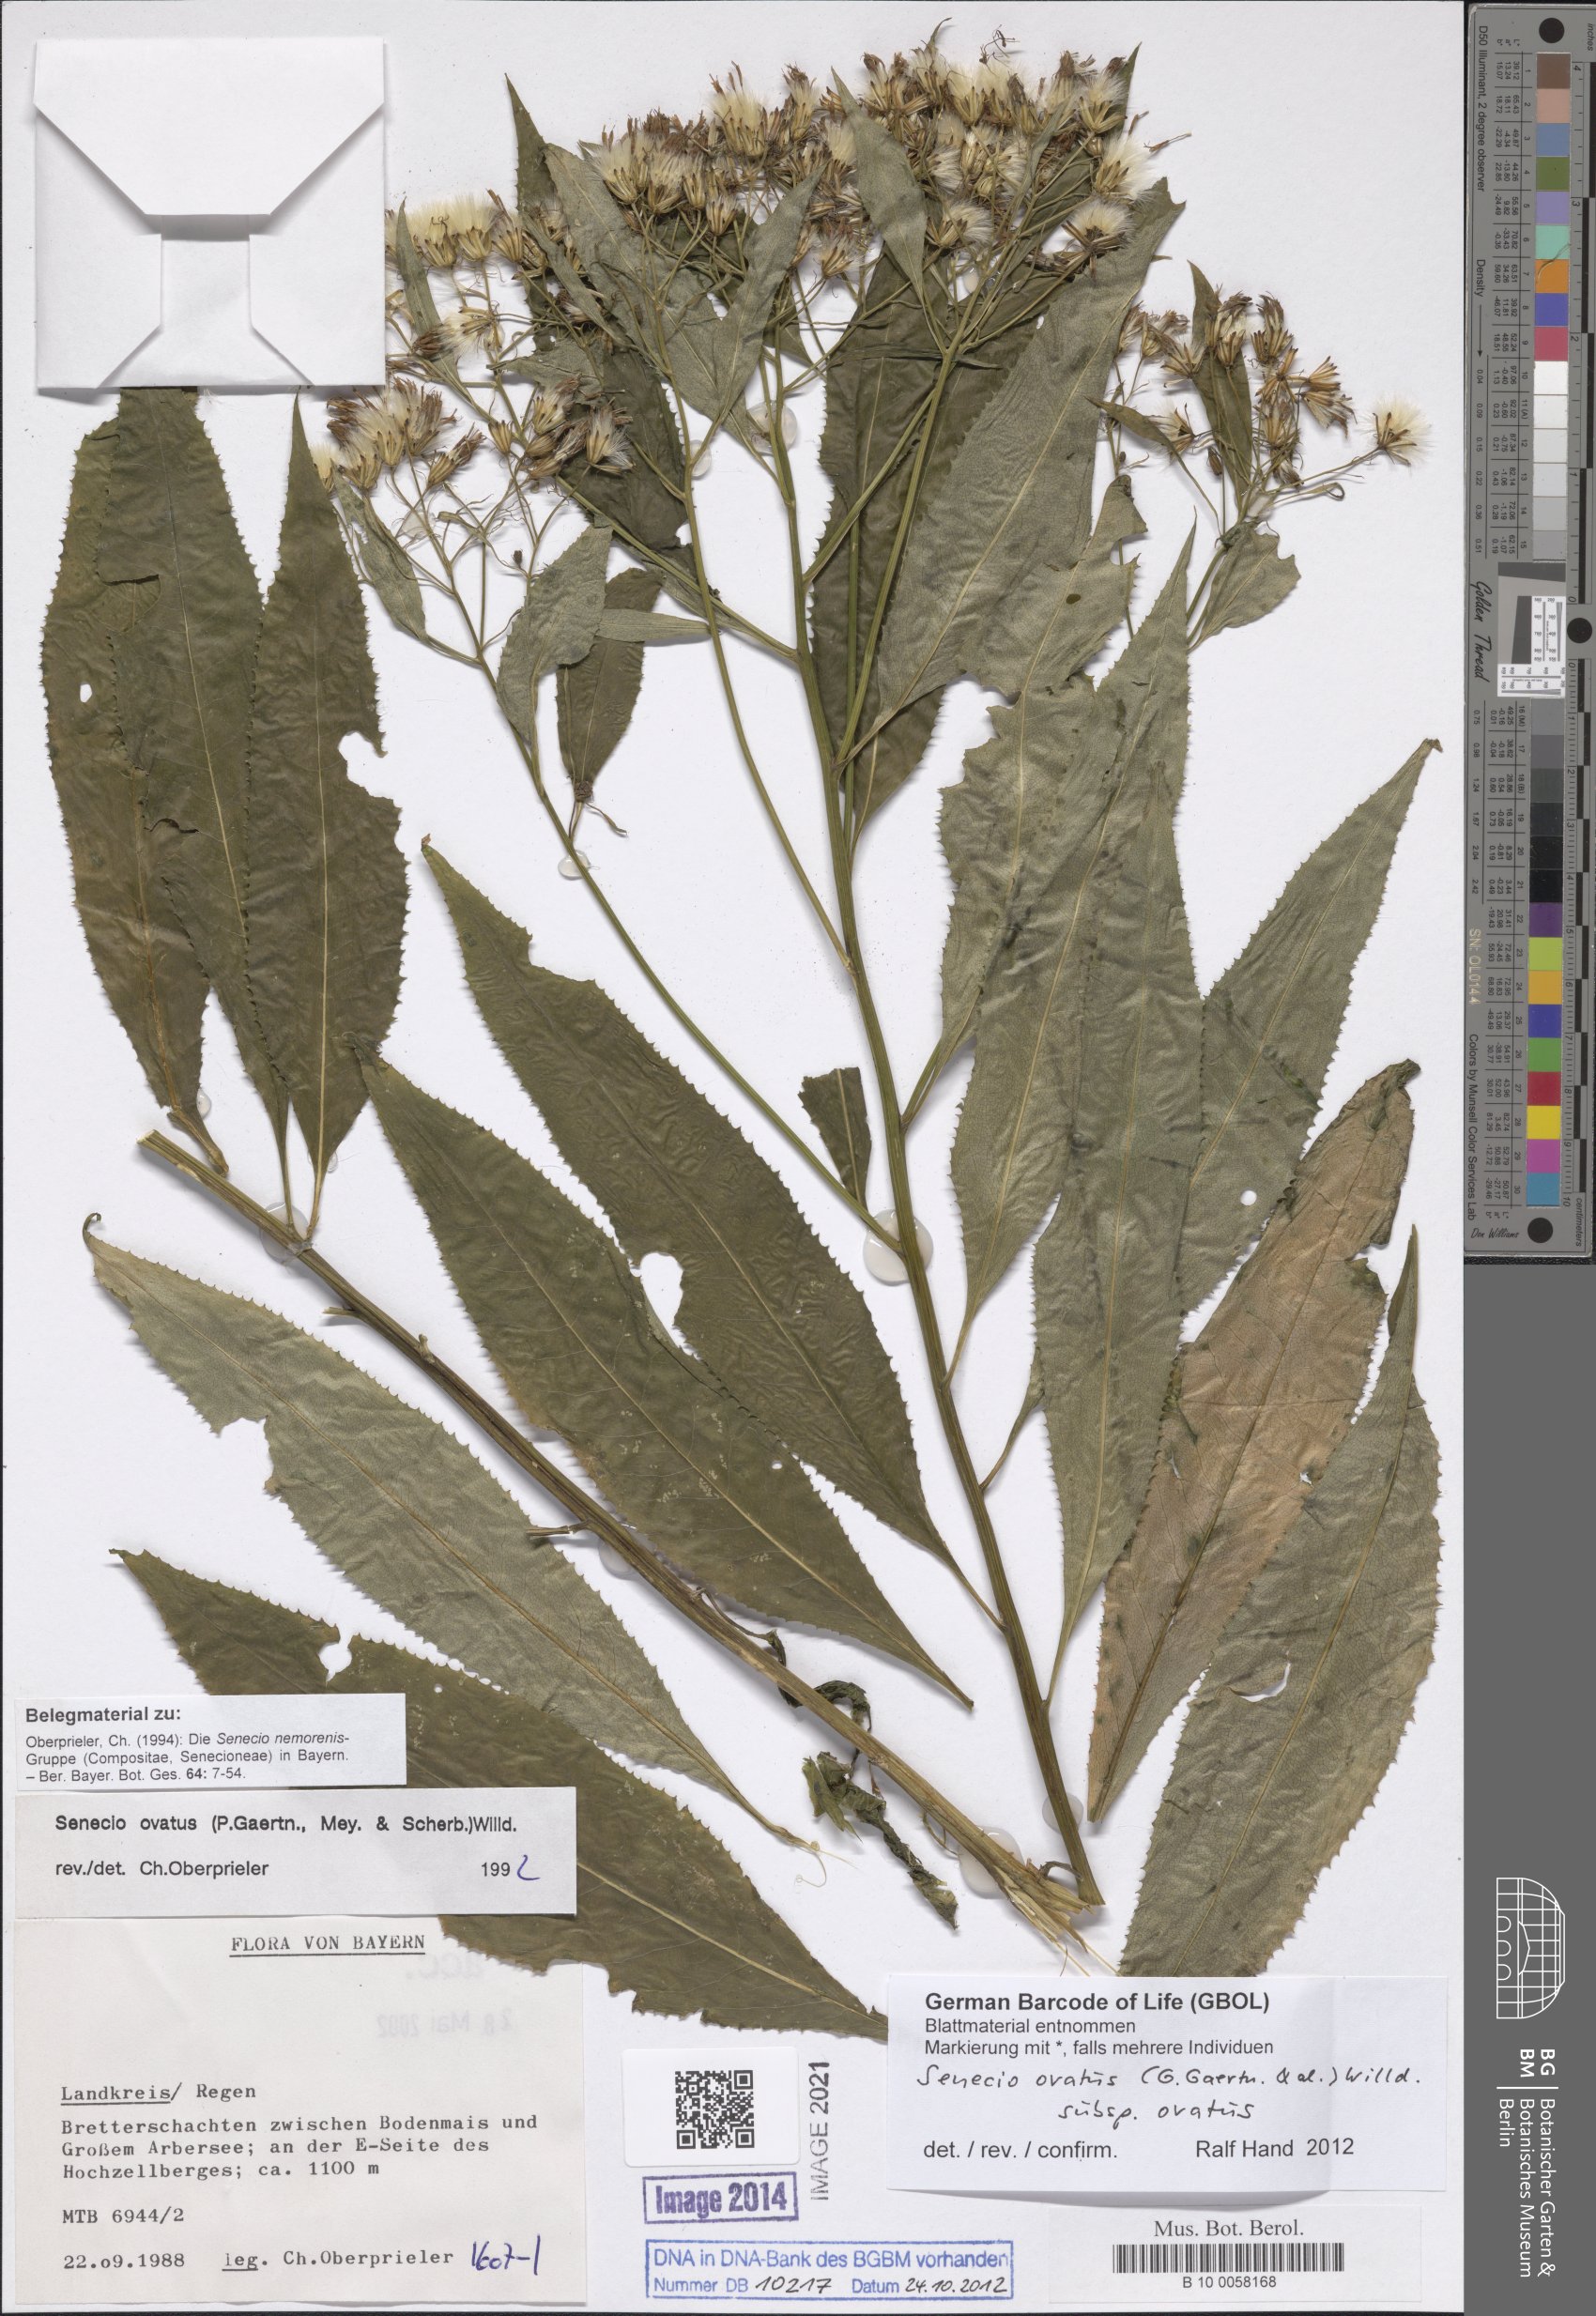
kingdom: Plantae
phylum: Tracheophyta
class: Magnoliopsida
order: Asterales
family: Asteraceae
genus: Senecio
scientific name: Senecio ovatus
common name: Wood ragwort
